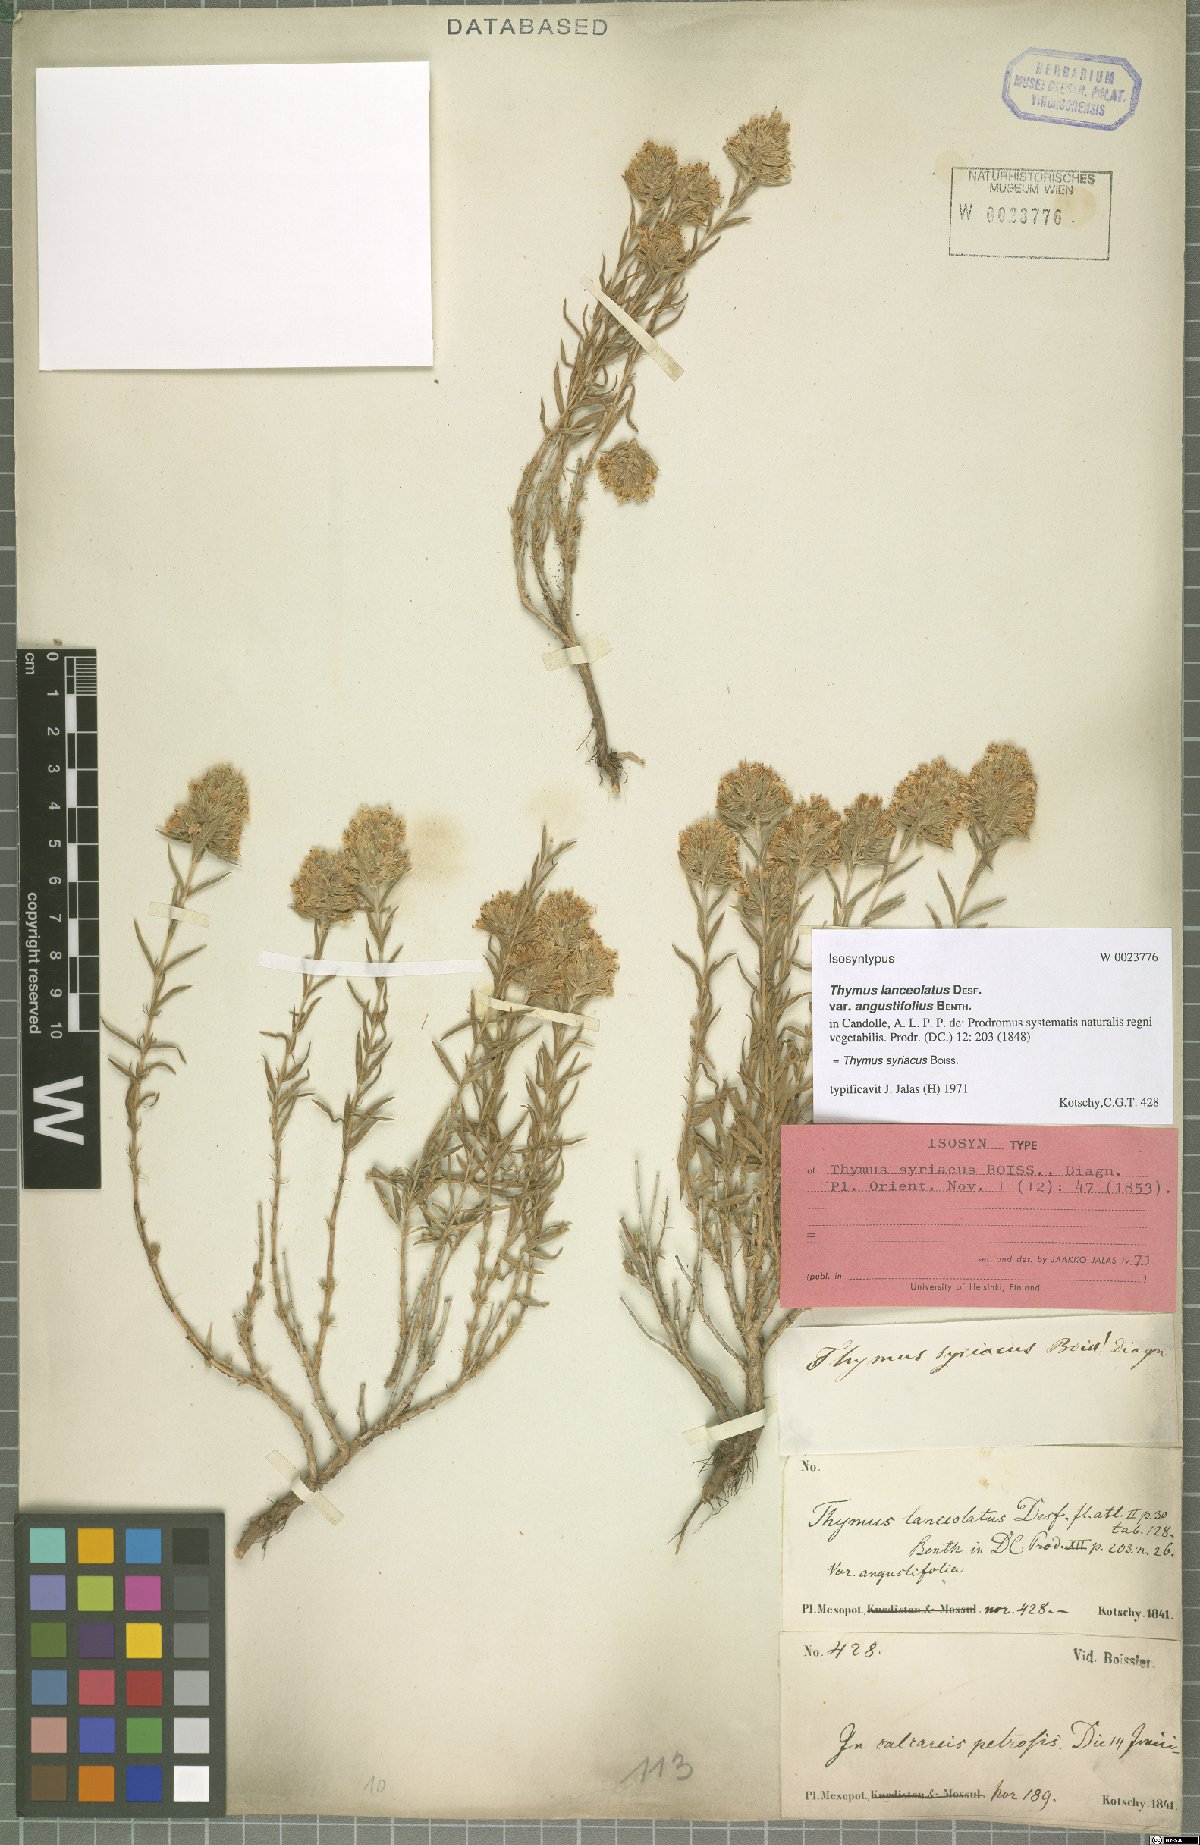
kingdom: Plantae
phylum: Tracheophyta
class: Magnoliopsida
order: Lamiales
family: Lamiaceae
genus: Thymus
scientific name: Thymus syriacus
